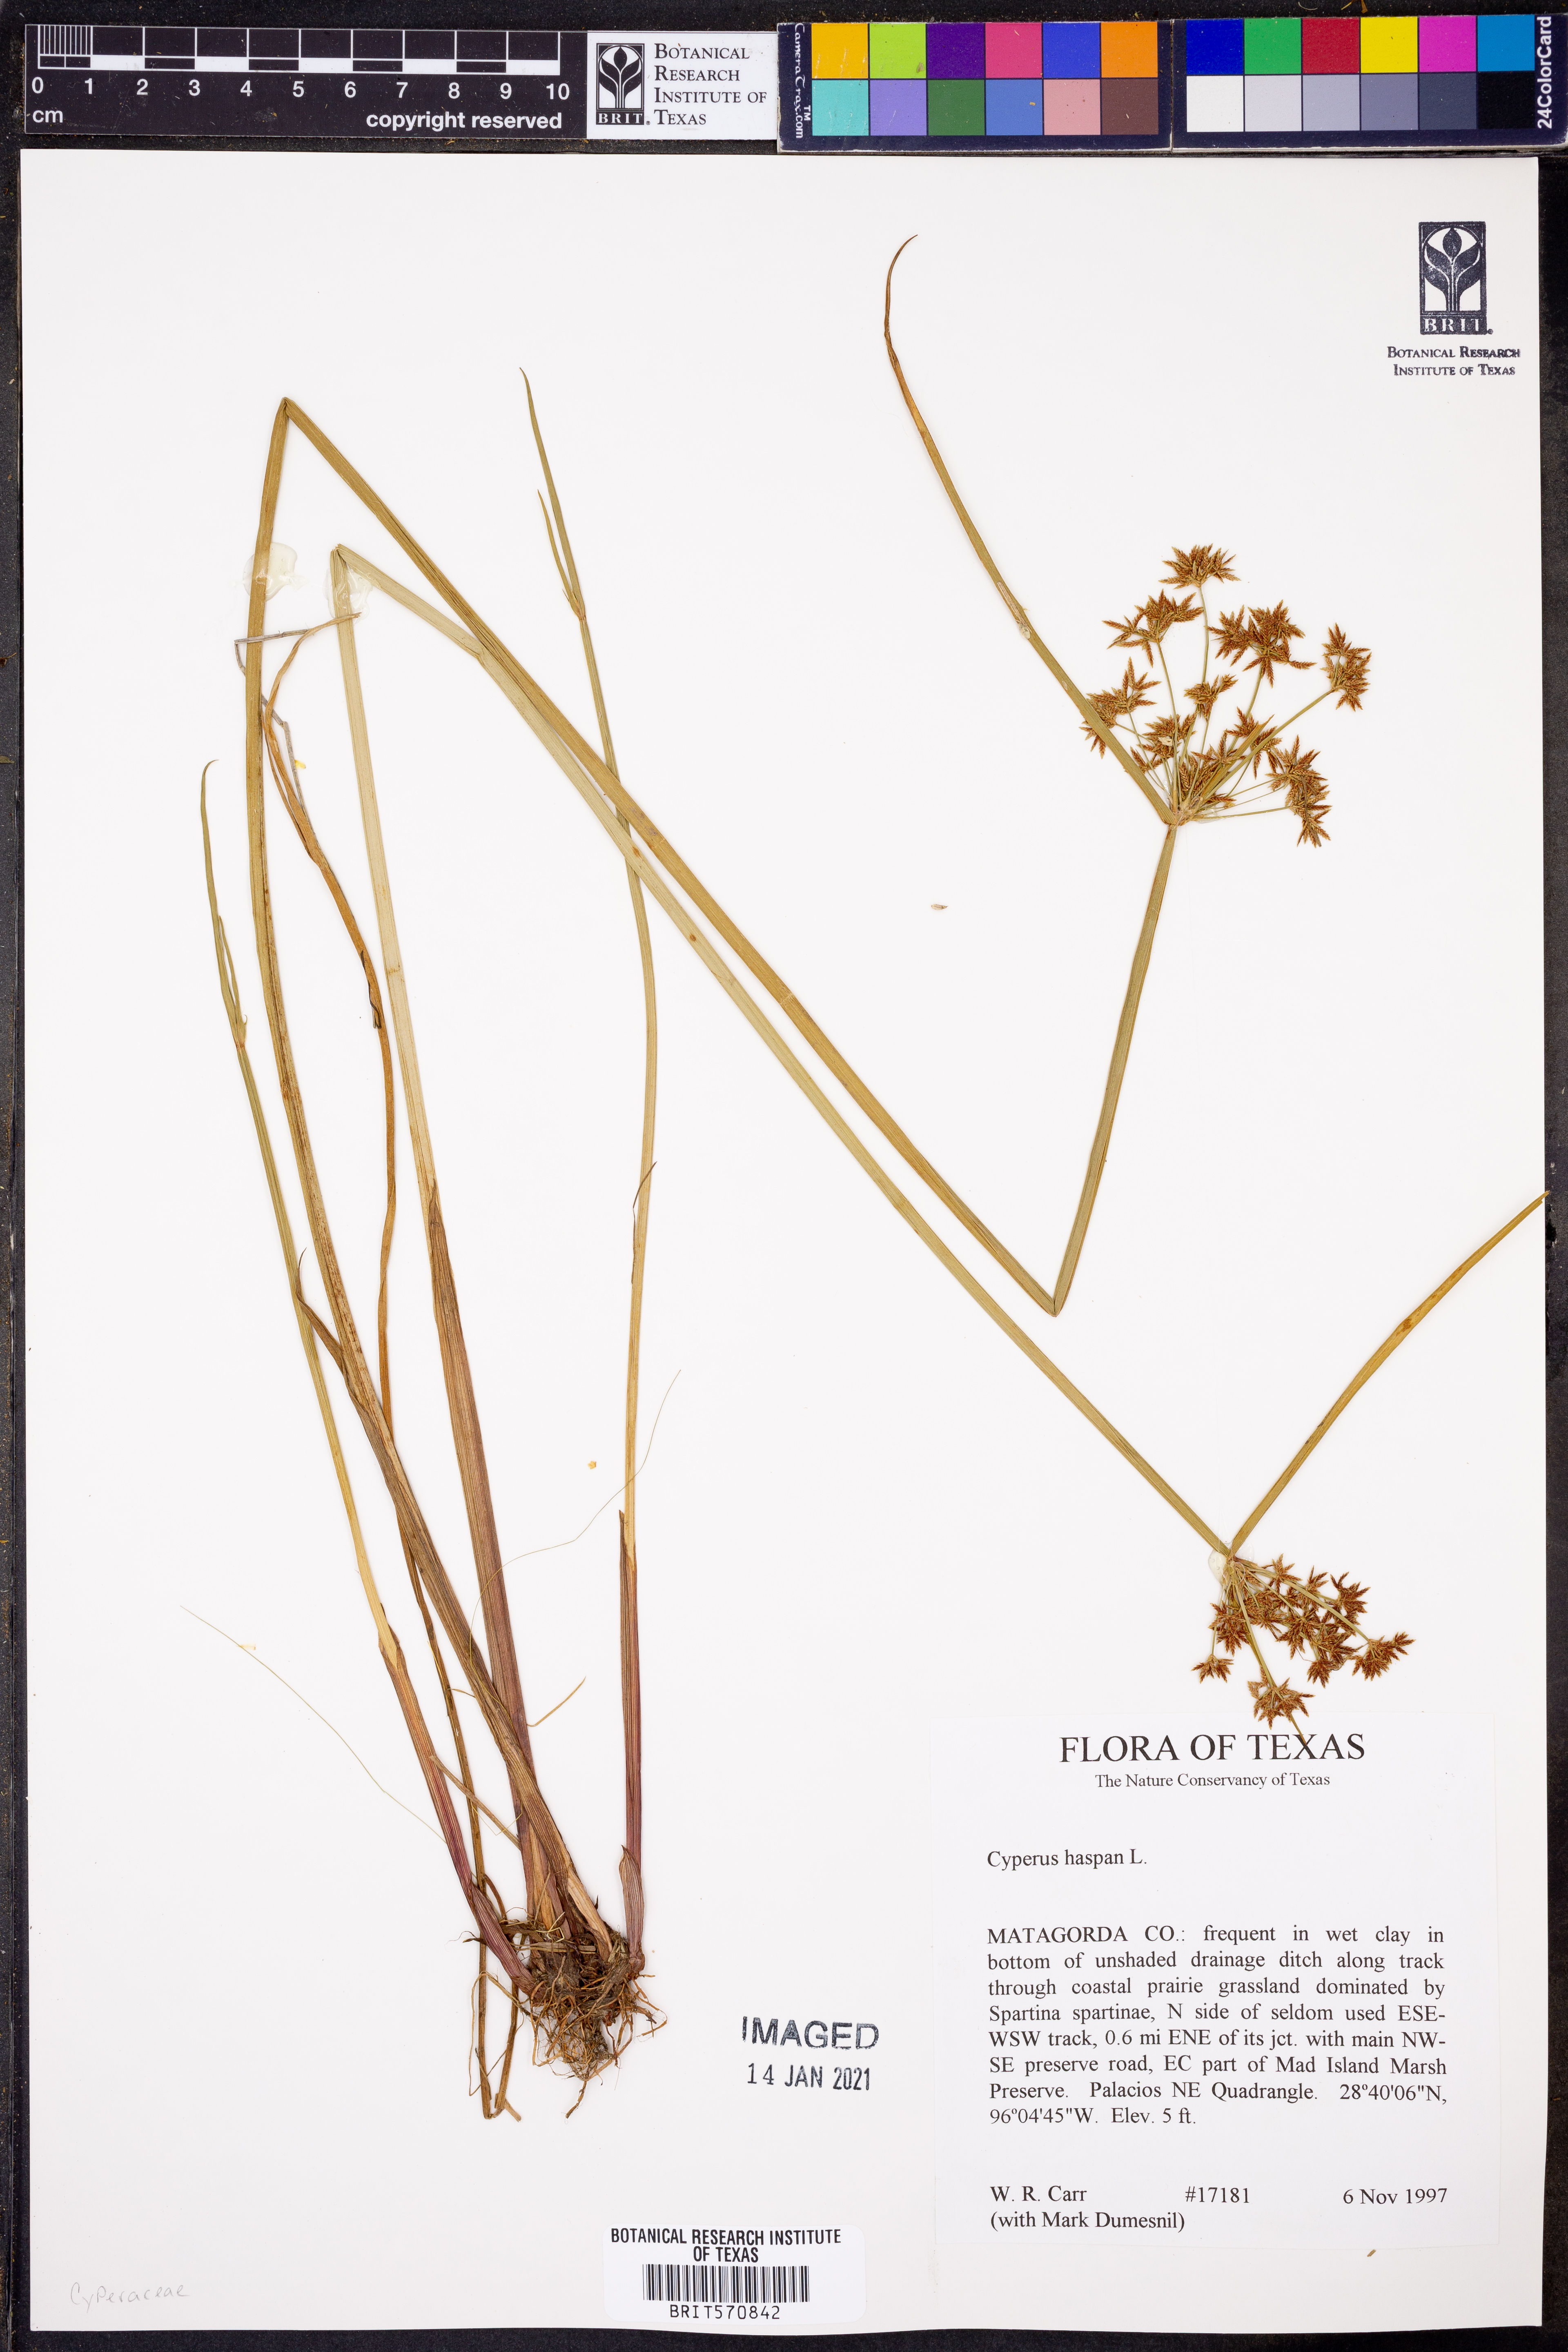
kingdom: Plantae
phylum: Tracheophyta
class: Liliopsida
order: Poales
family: Cyperaceae
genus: Cyperus
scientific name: Cyperus haspan
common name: Haspan flatsedge
